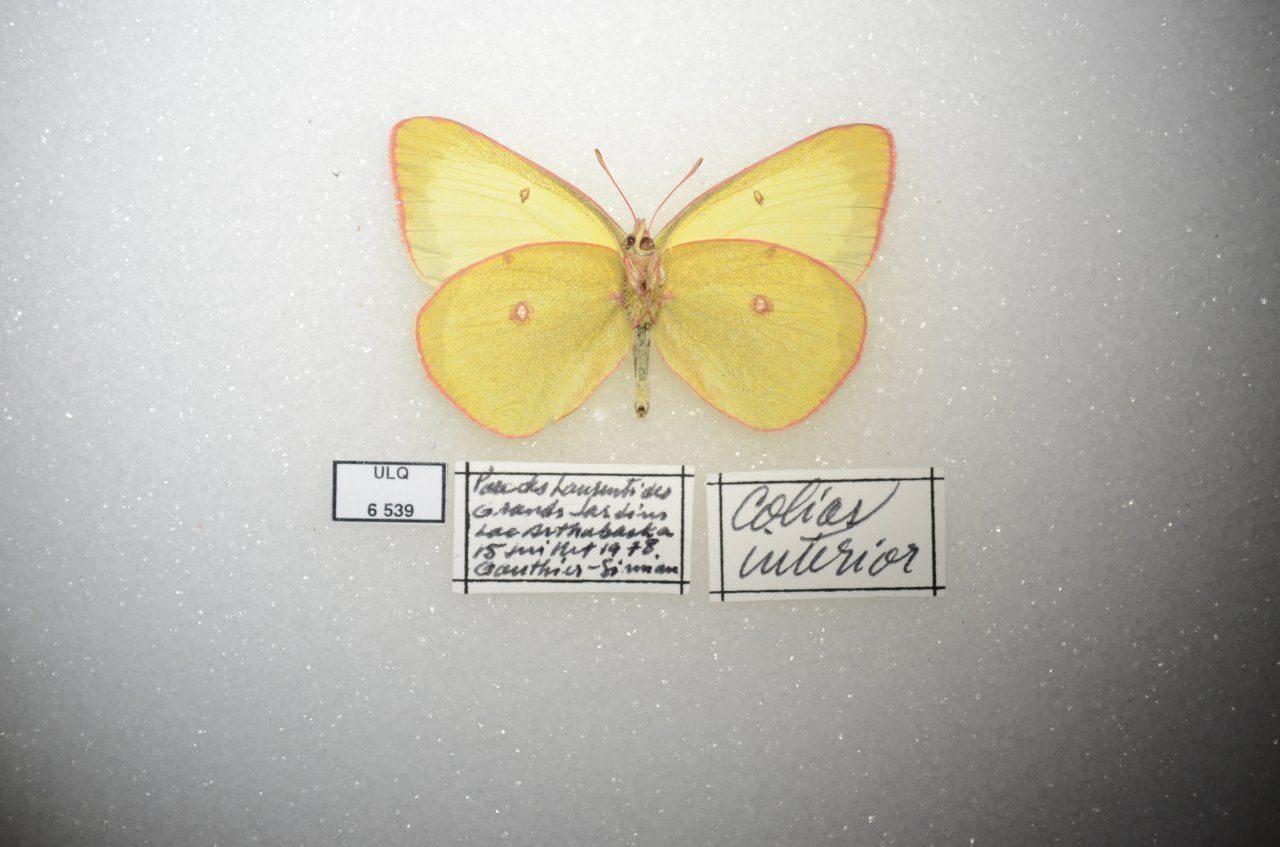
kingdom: Animalia
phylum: Arthropoda
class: Insecta
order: Lepidoptera
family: Pieridae
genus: Colias
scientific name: Colias interior
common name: Pink-edged Sulphur
